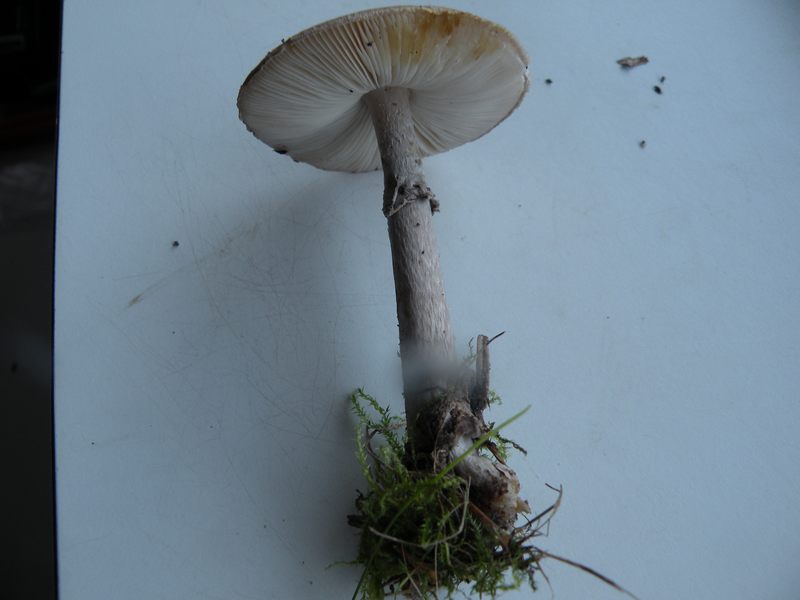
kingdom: Fungi
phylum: Basidiomycota
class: Agaricomycetes
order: Agaricales
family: Amanitaceae
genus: Amanita
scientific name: Amanita porphyria
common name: porfyr-fluesvamp
